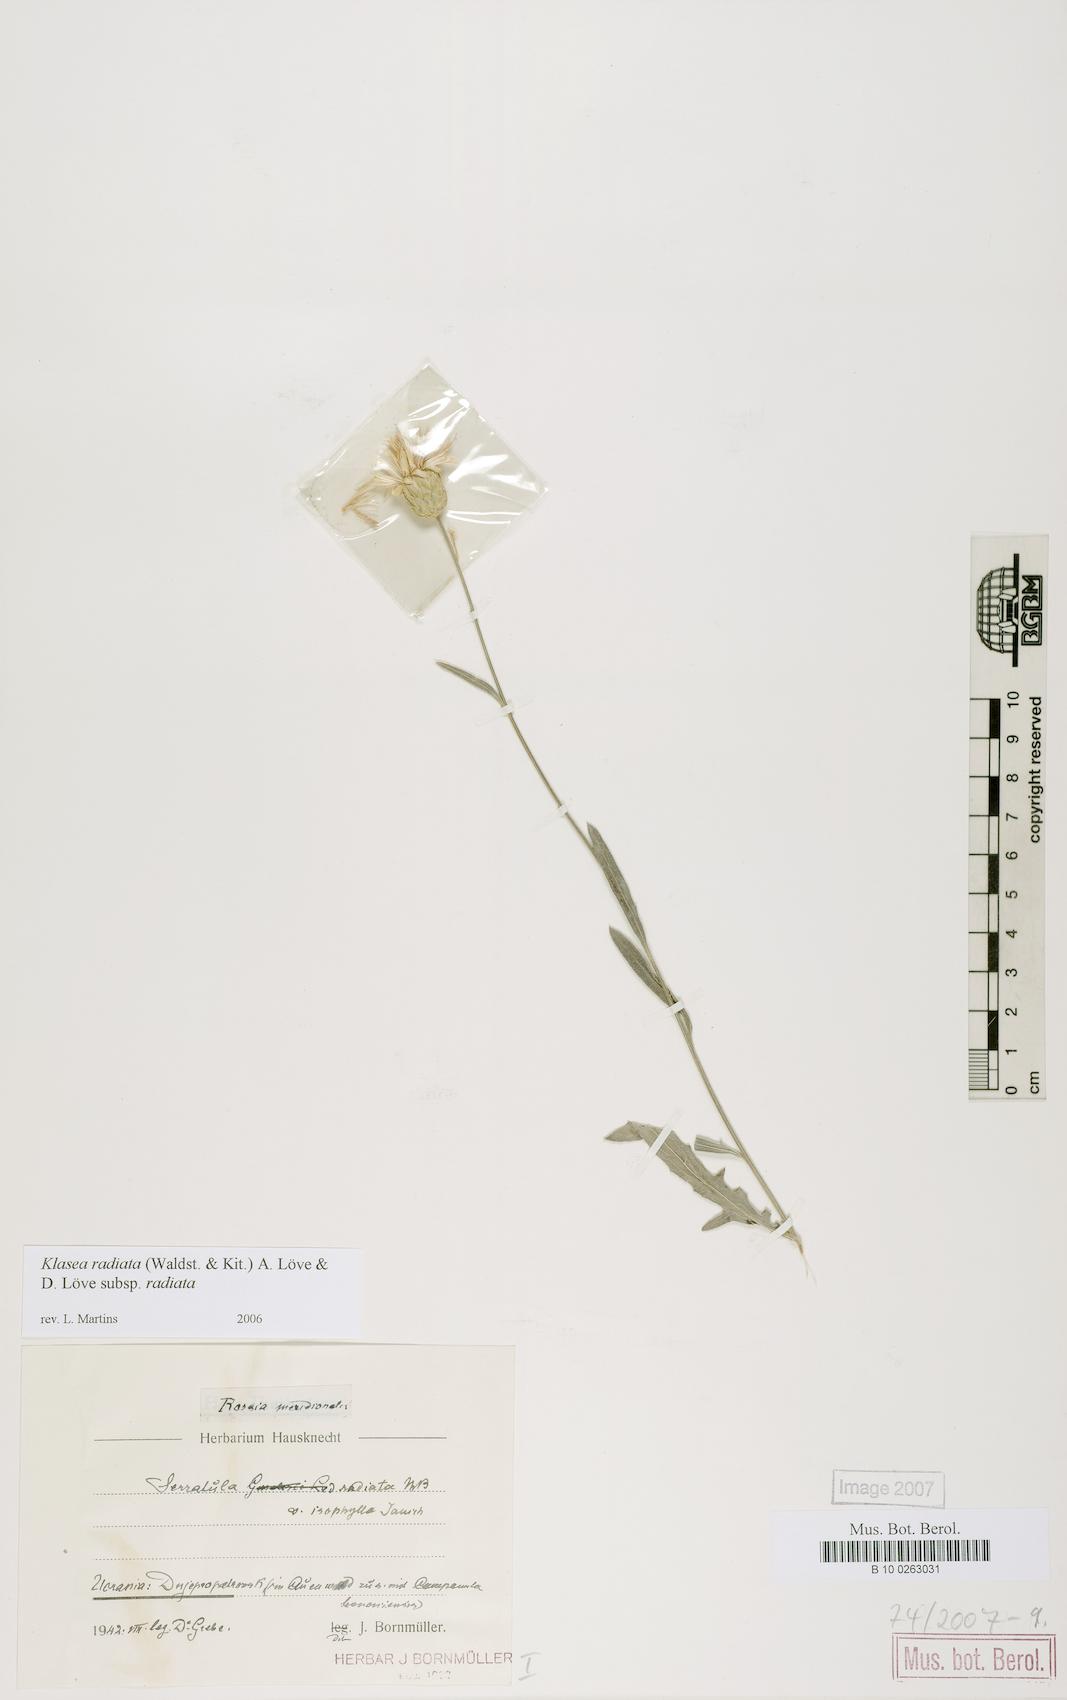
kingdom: Plantae
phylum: Tracheophyta
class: Magnoliopsida
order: Asterales
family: Asteraceae
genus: Klasea
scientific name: Klasea radiata
